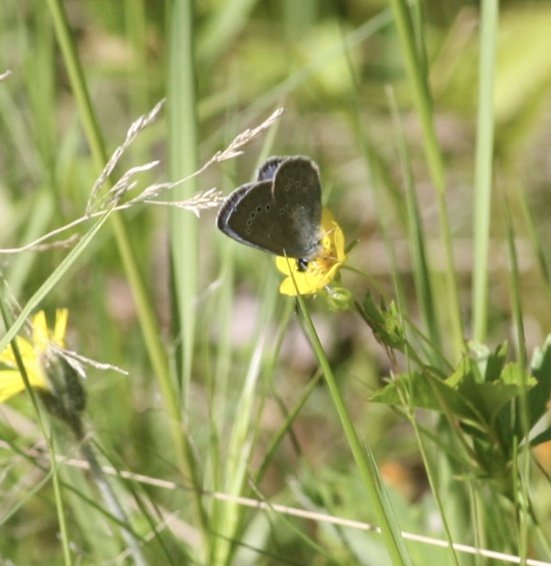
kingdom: Animalia
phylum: Arthropoda
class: Insecta
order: Lepidoptera
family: Lycaenidae
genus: Glaucopsyche
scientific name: Glaucopsyche lygdamus
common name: Silvery Blue
